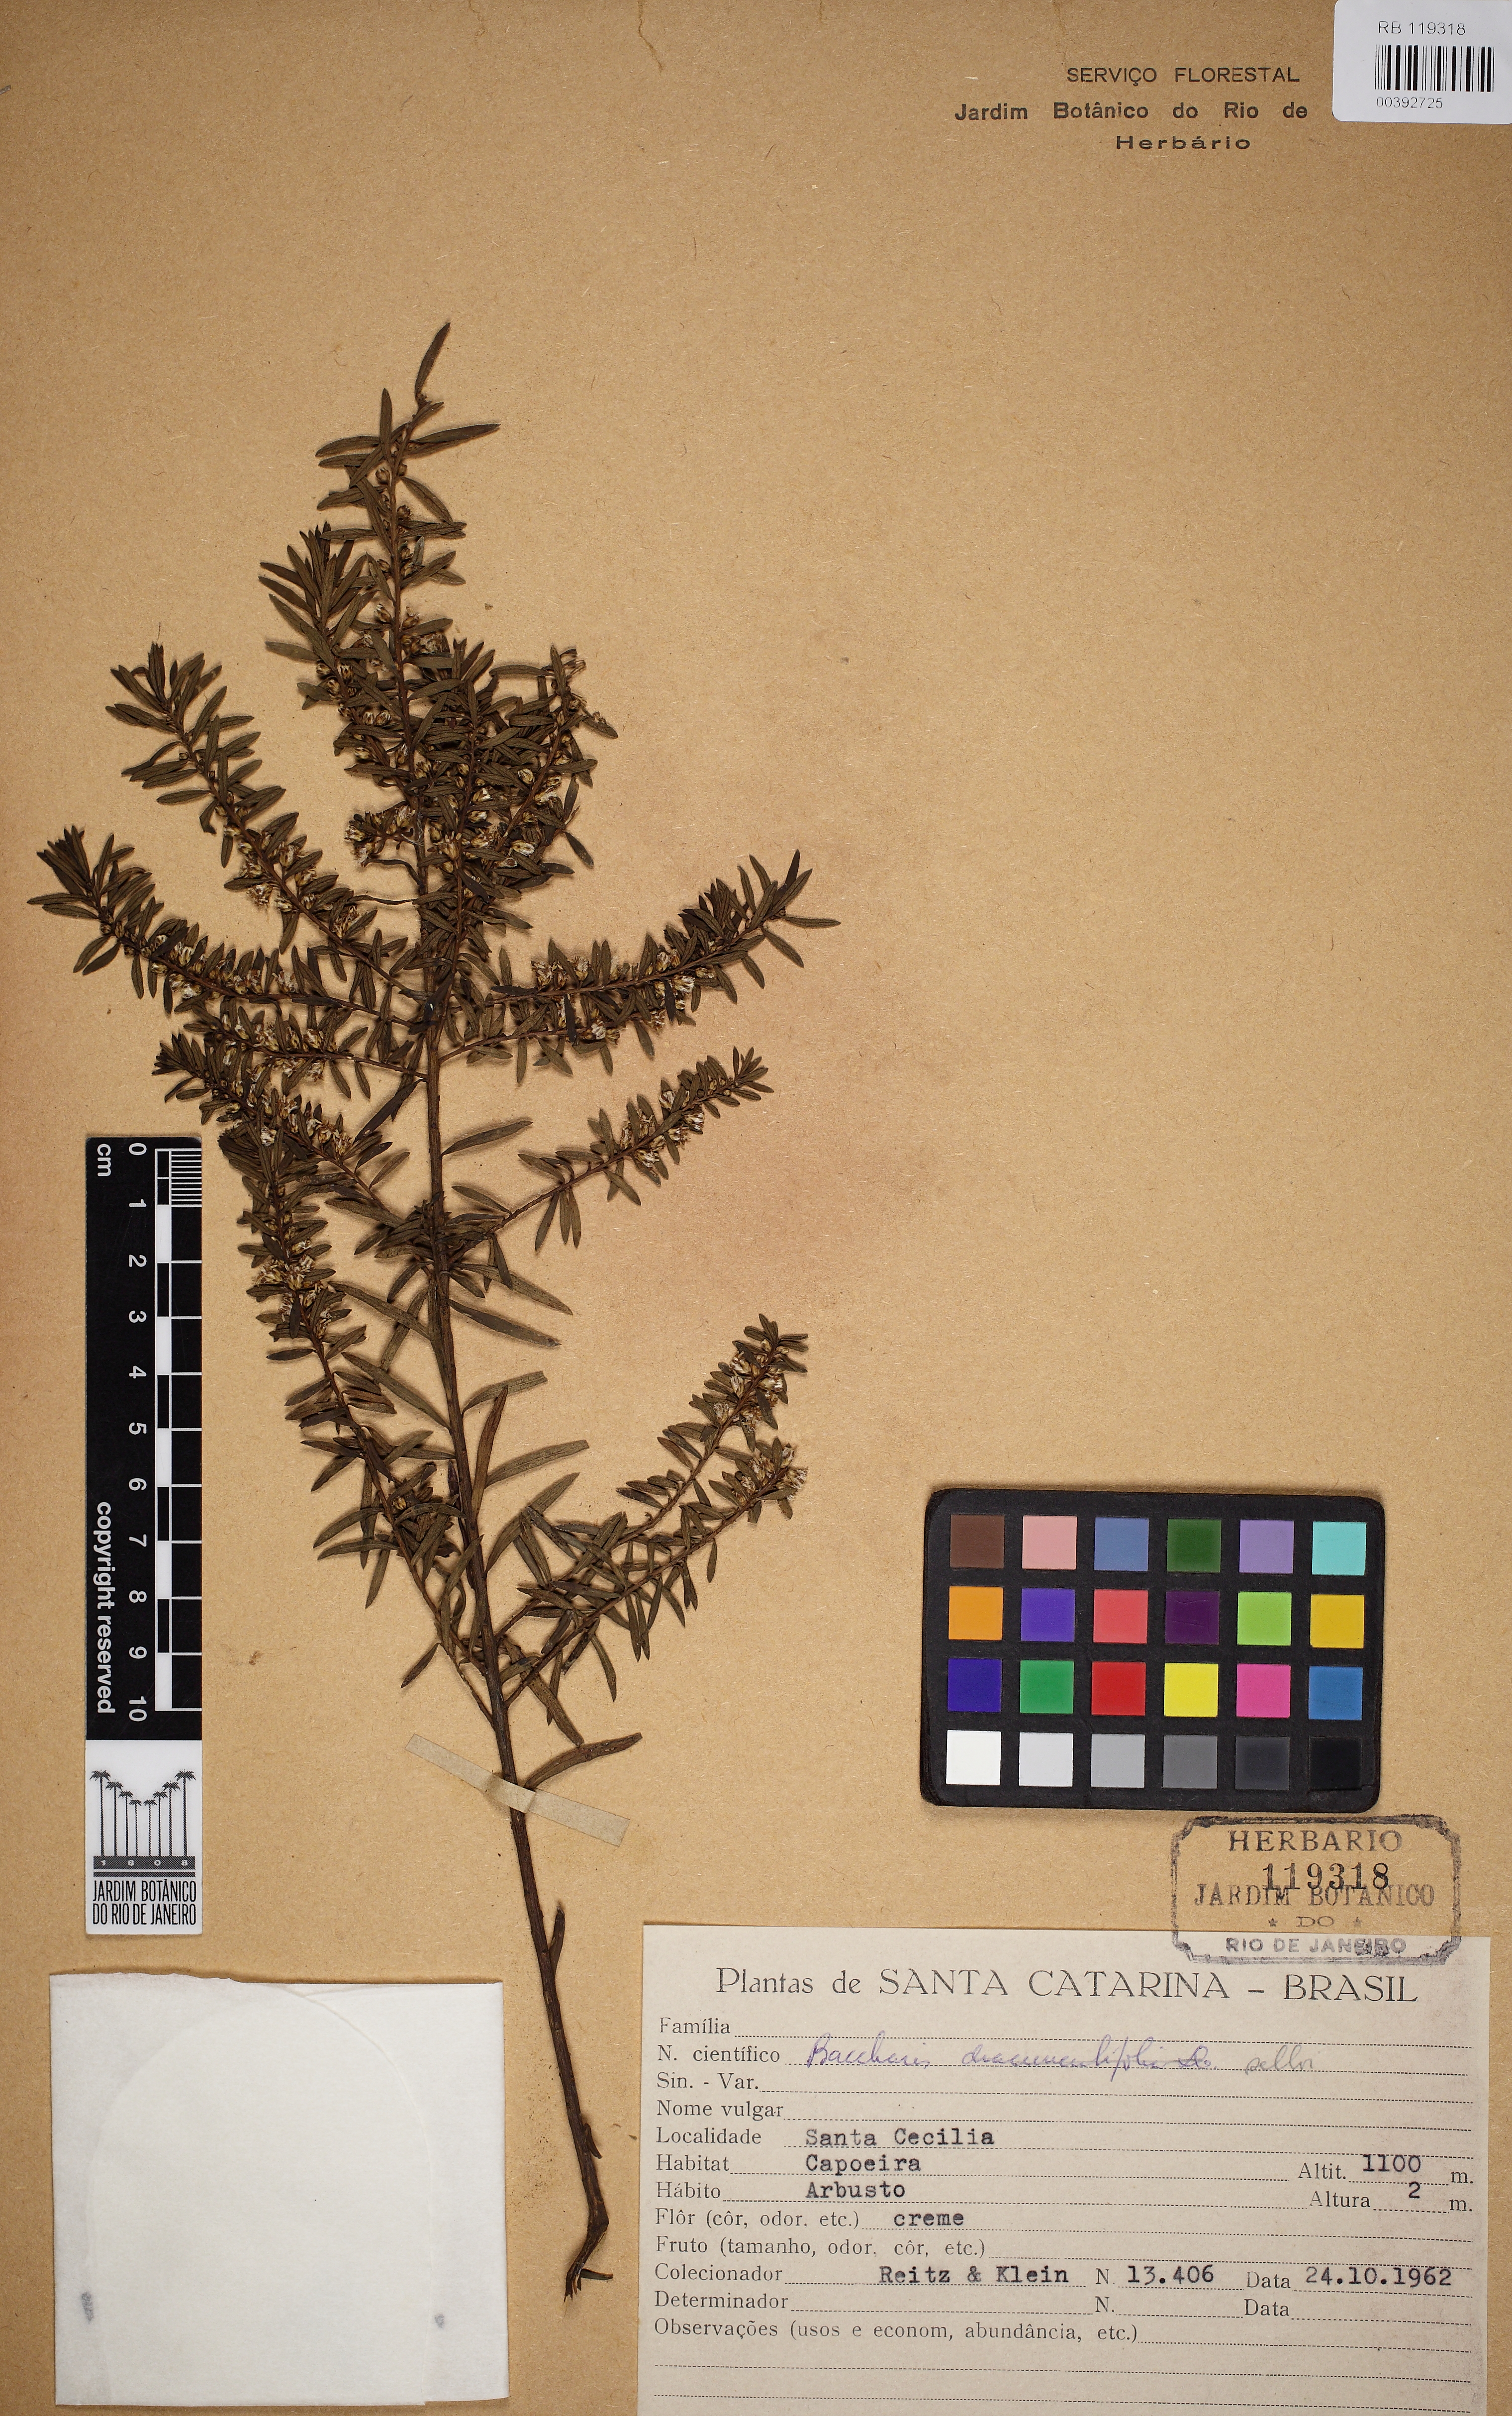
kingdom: Plantae
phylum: Tracheophyta
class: Magnoliopsida
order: Asterales
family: Asteraceae
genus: Baccharis
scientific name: Baccharis selloi
